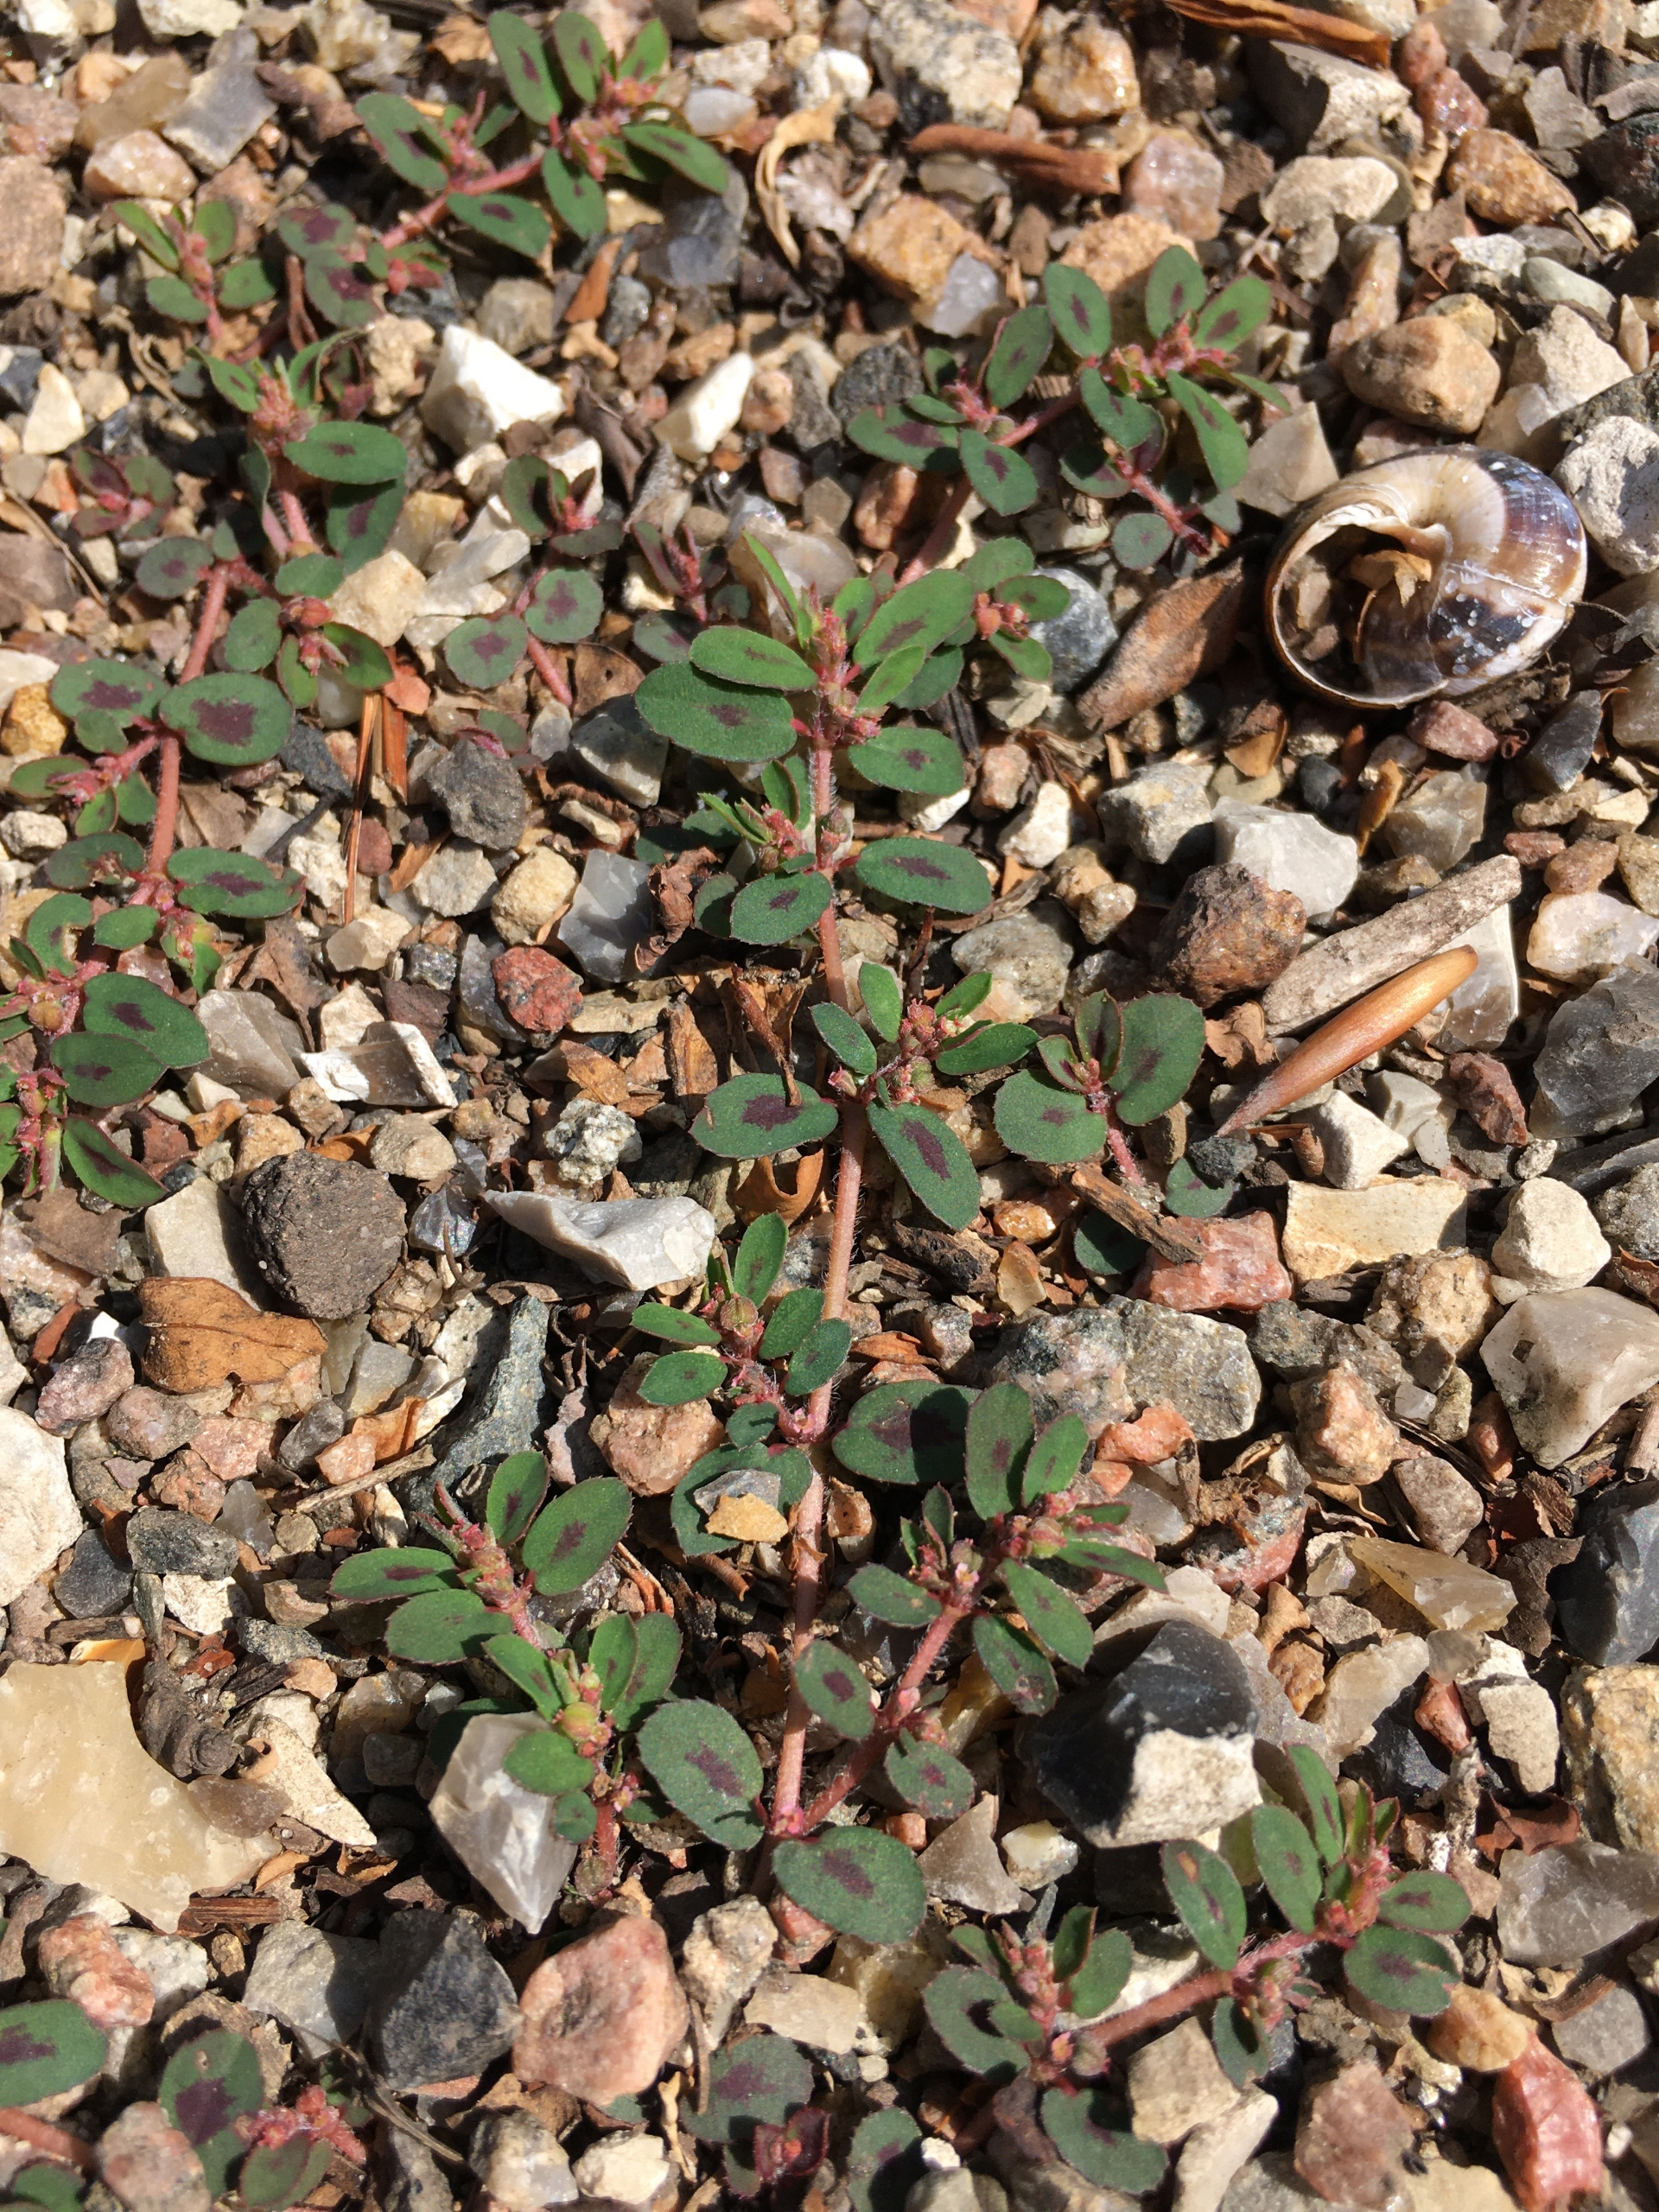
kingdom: Plantae
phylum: Tracheophyta
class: Magnoliopsida
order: Malpighiales
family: Euphorbiaceae
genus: Euphorbia
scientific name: Euphorbia maculata
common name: Plet-vortemælk
